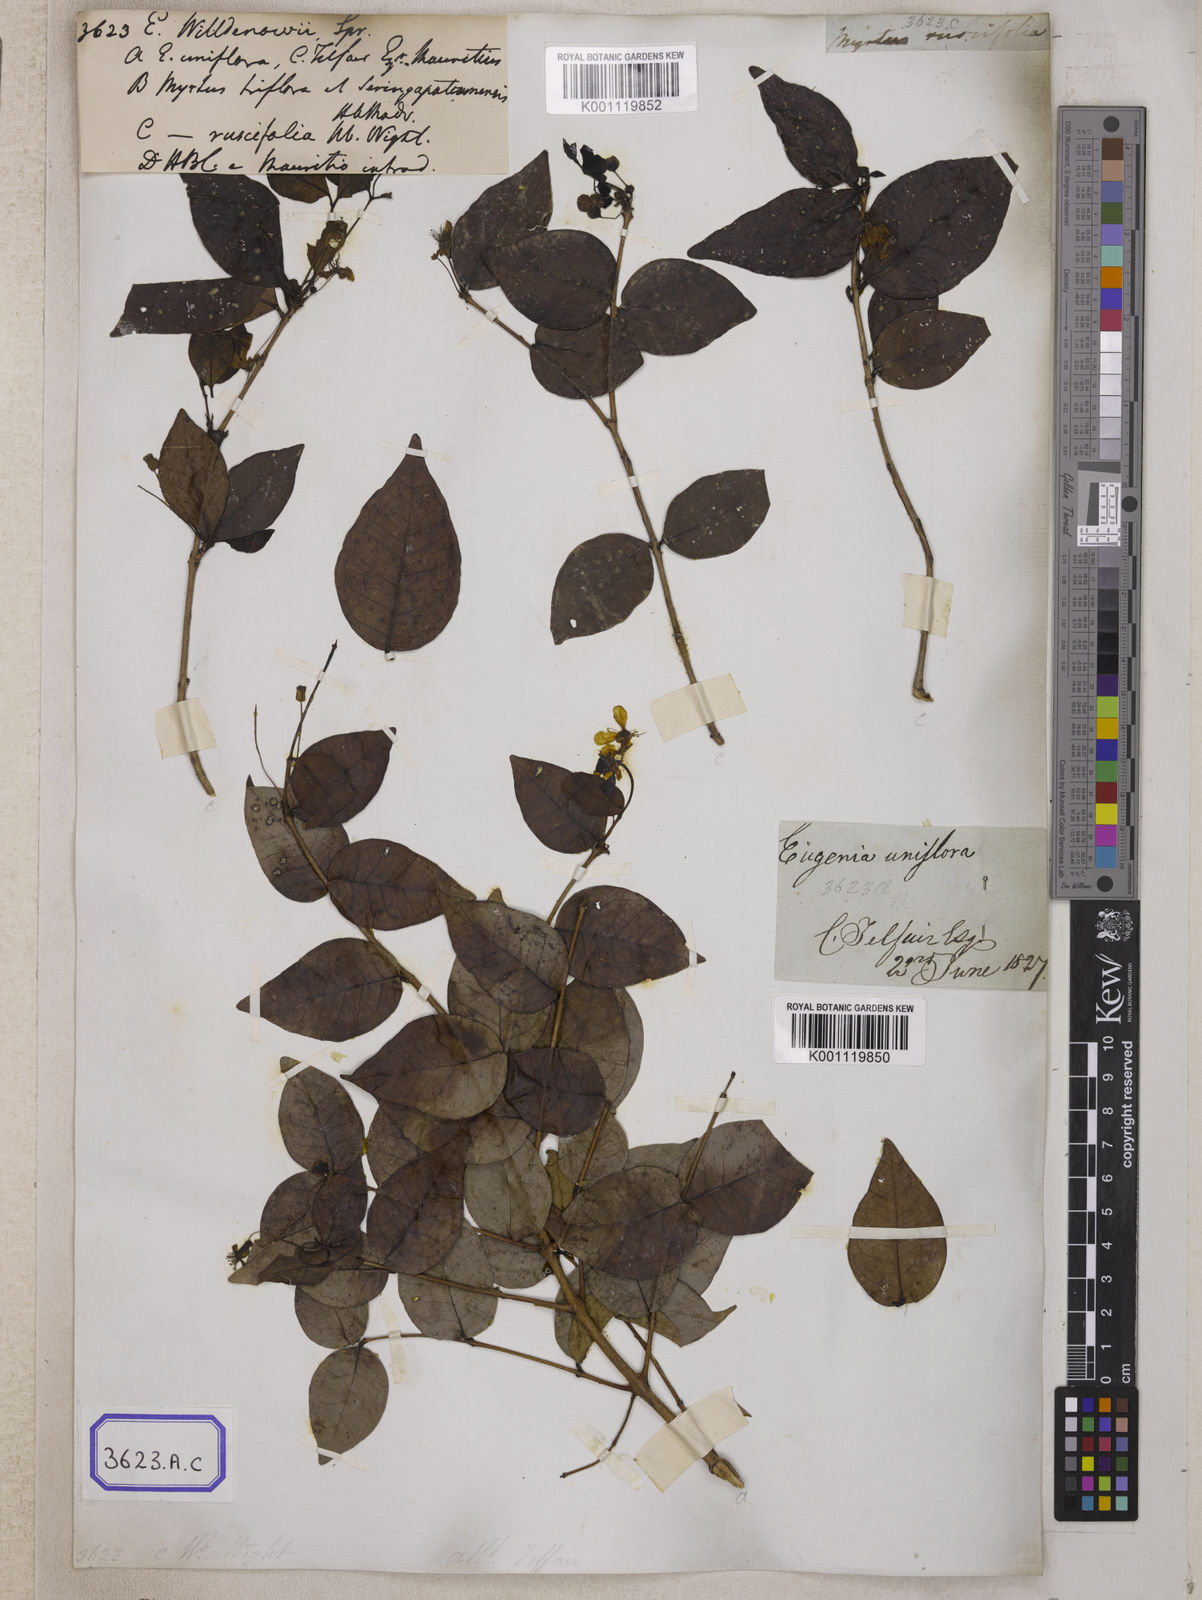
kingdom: Plantae
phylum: Tracheophyta
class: Magnoliopsida
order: Myrtales
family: Myrtaceae
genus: Eugenia
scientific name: Eugenia uniflora
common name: Surinam cherry
